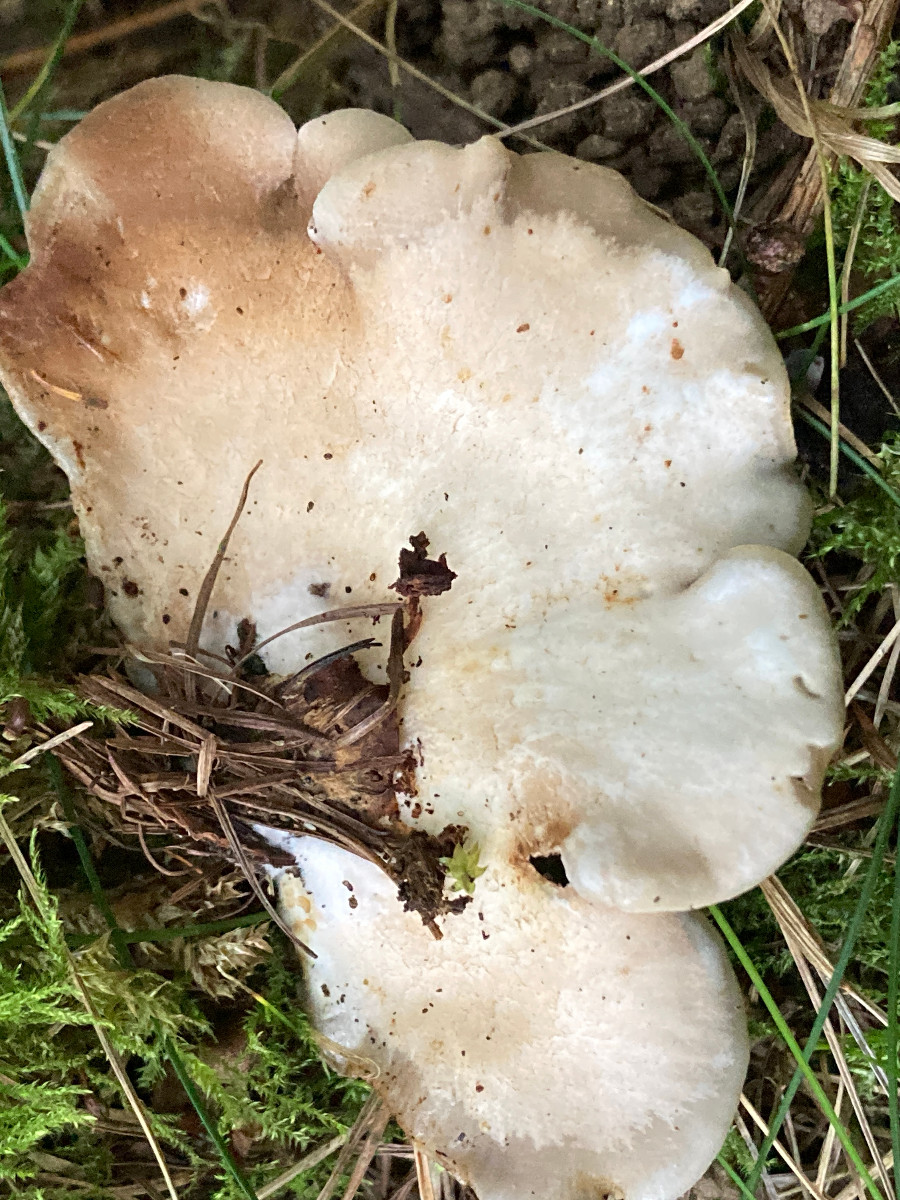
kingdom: Fungi
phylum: Basidiomycota
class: Agaricomycetes
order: Agaricales
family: Crepidotaceae
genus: Crepidotus
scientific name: Crepidotus mollis
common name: blød muslingesvamp
